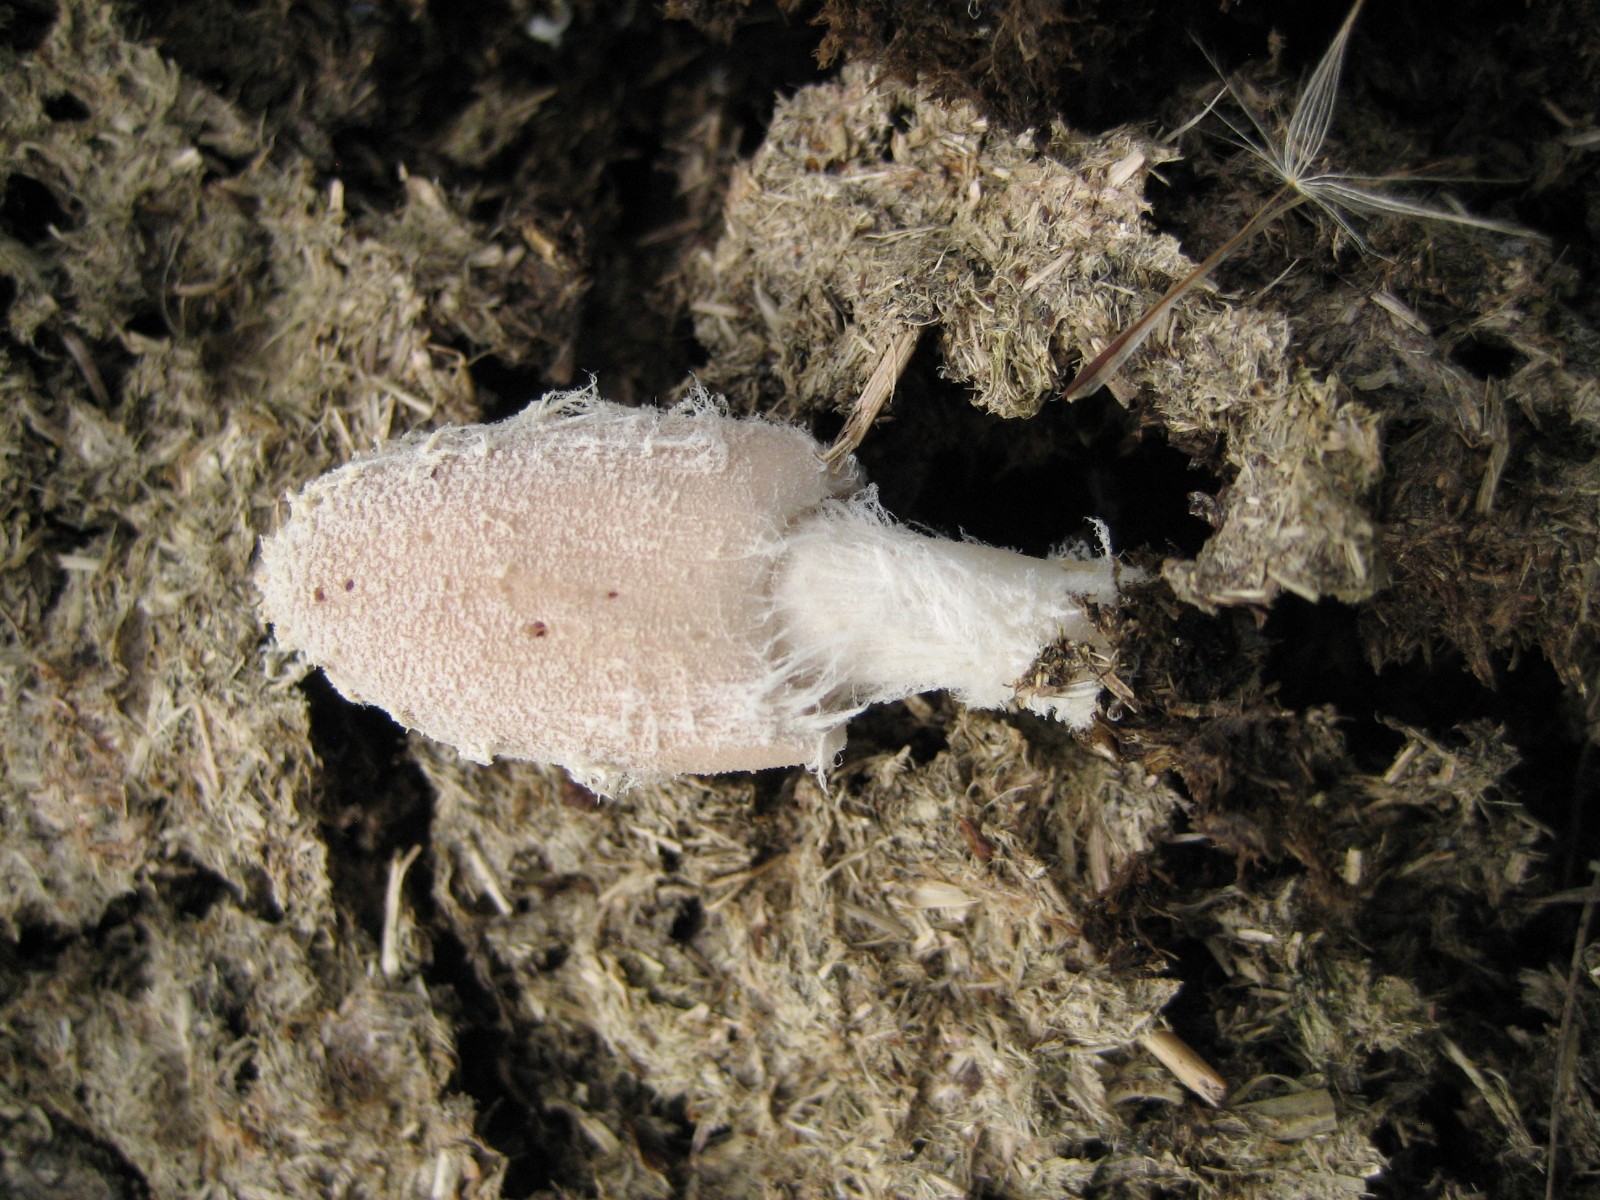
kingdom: Fungi
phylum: Basidiomycota
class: Agaricomycetes
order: Agaricales
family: Psathyrellaceae
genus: Coprinopsis
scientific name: Coprinopsis pseudonivea
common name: pudret blækhat
